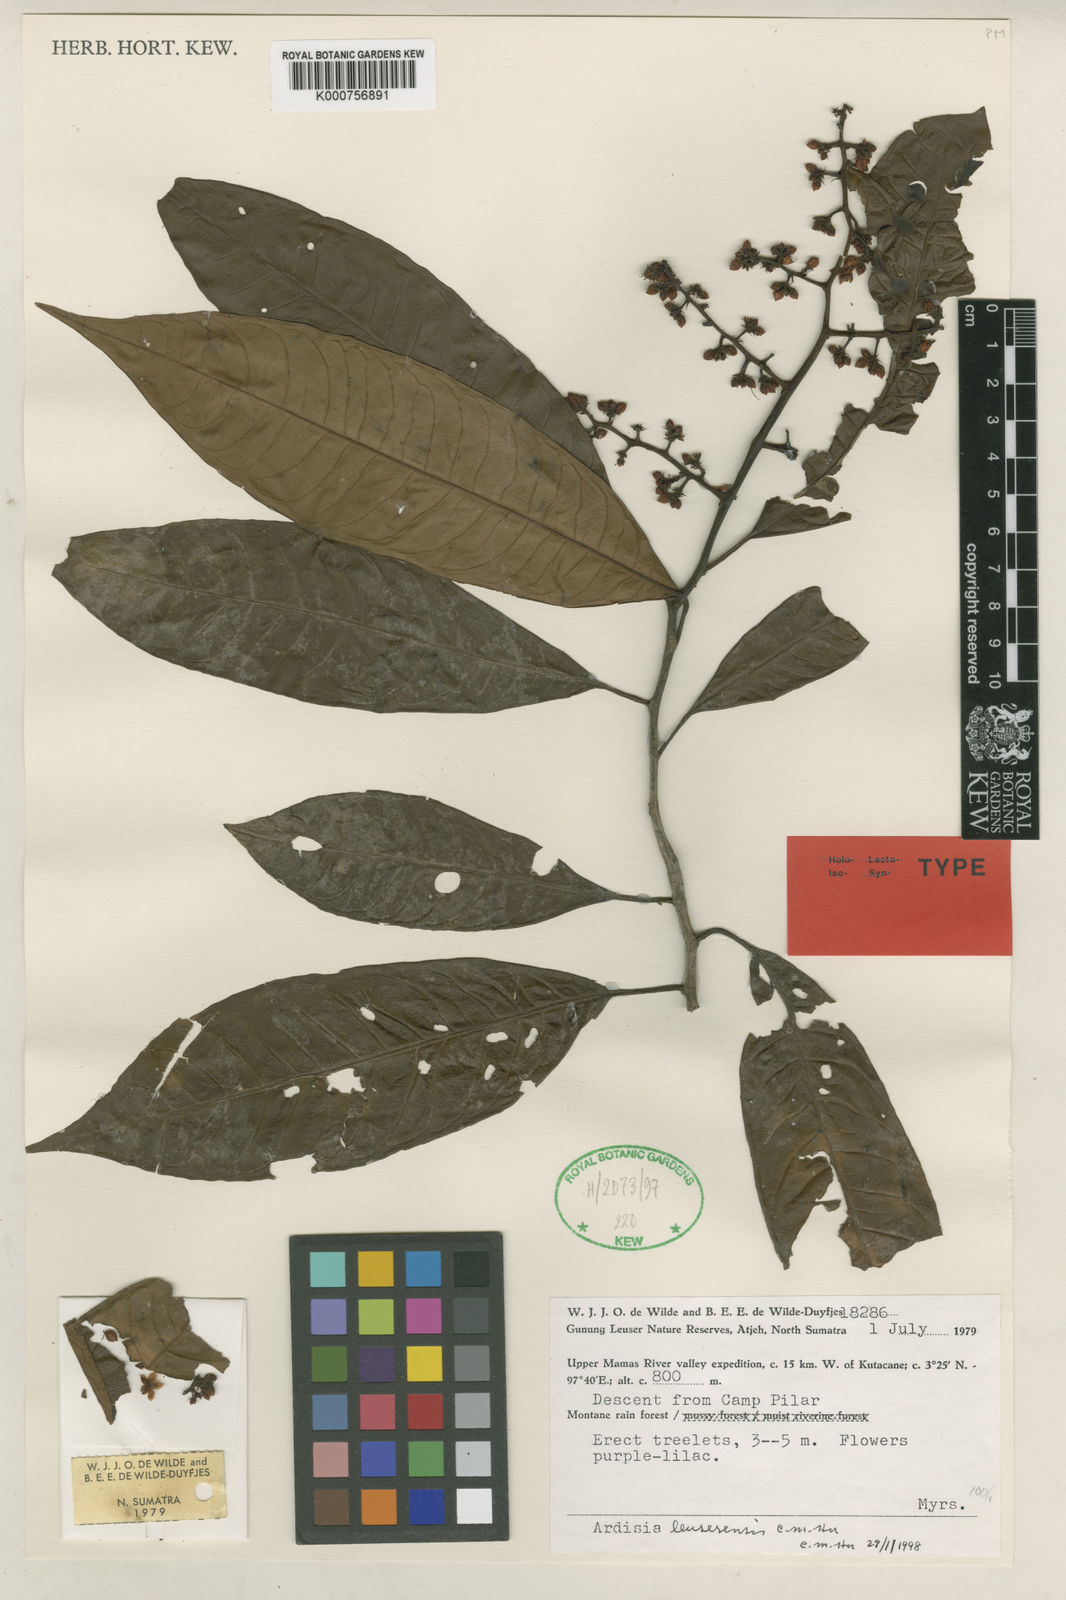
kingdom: Plantae
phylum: Tracheophyta
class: Magnoliopsida
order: Ericales
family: Primulaceae
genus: Ardisia
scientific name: Ardisia leuserensis
